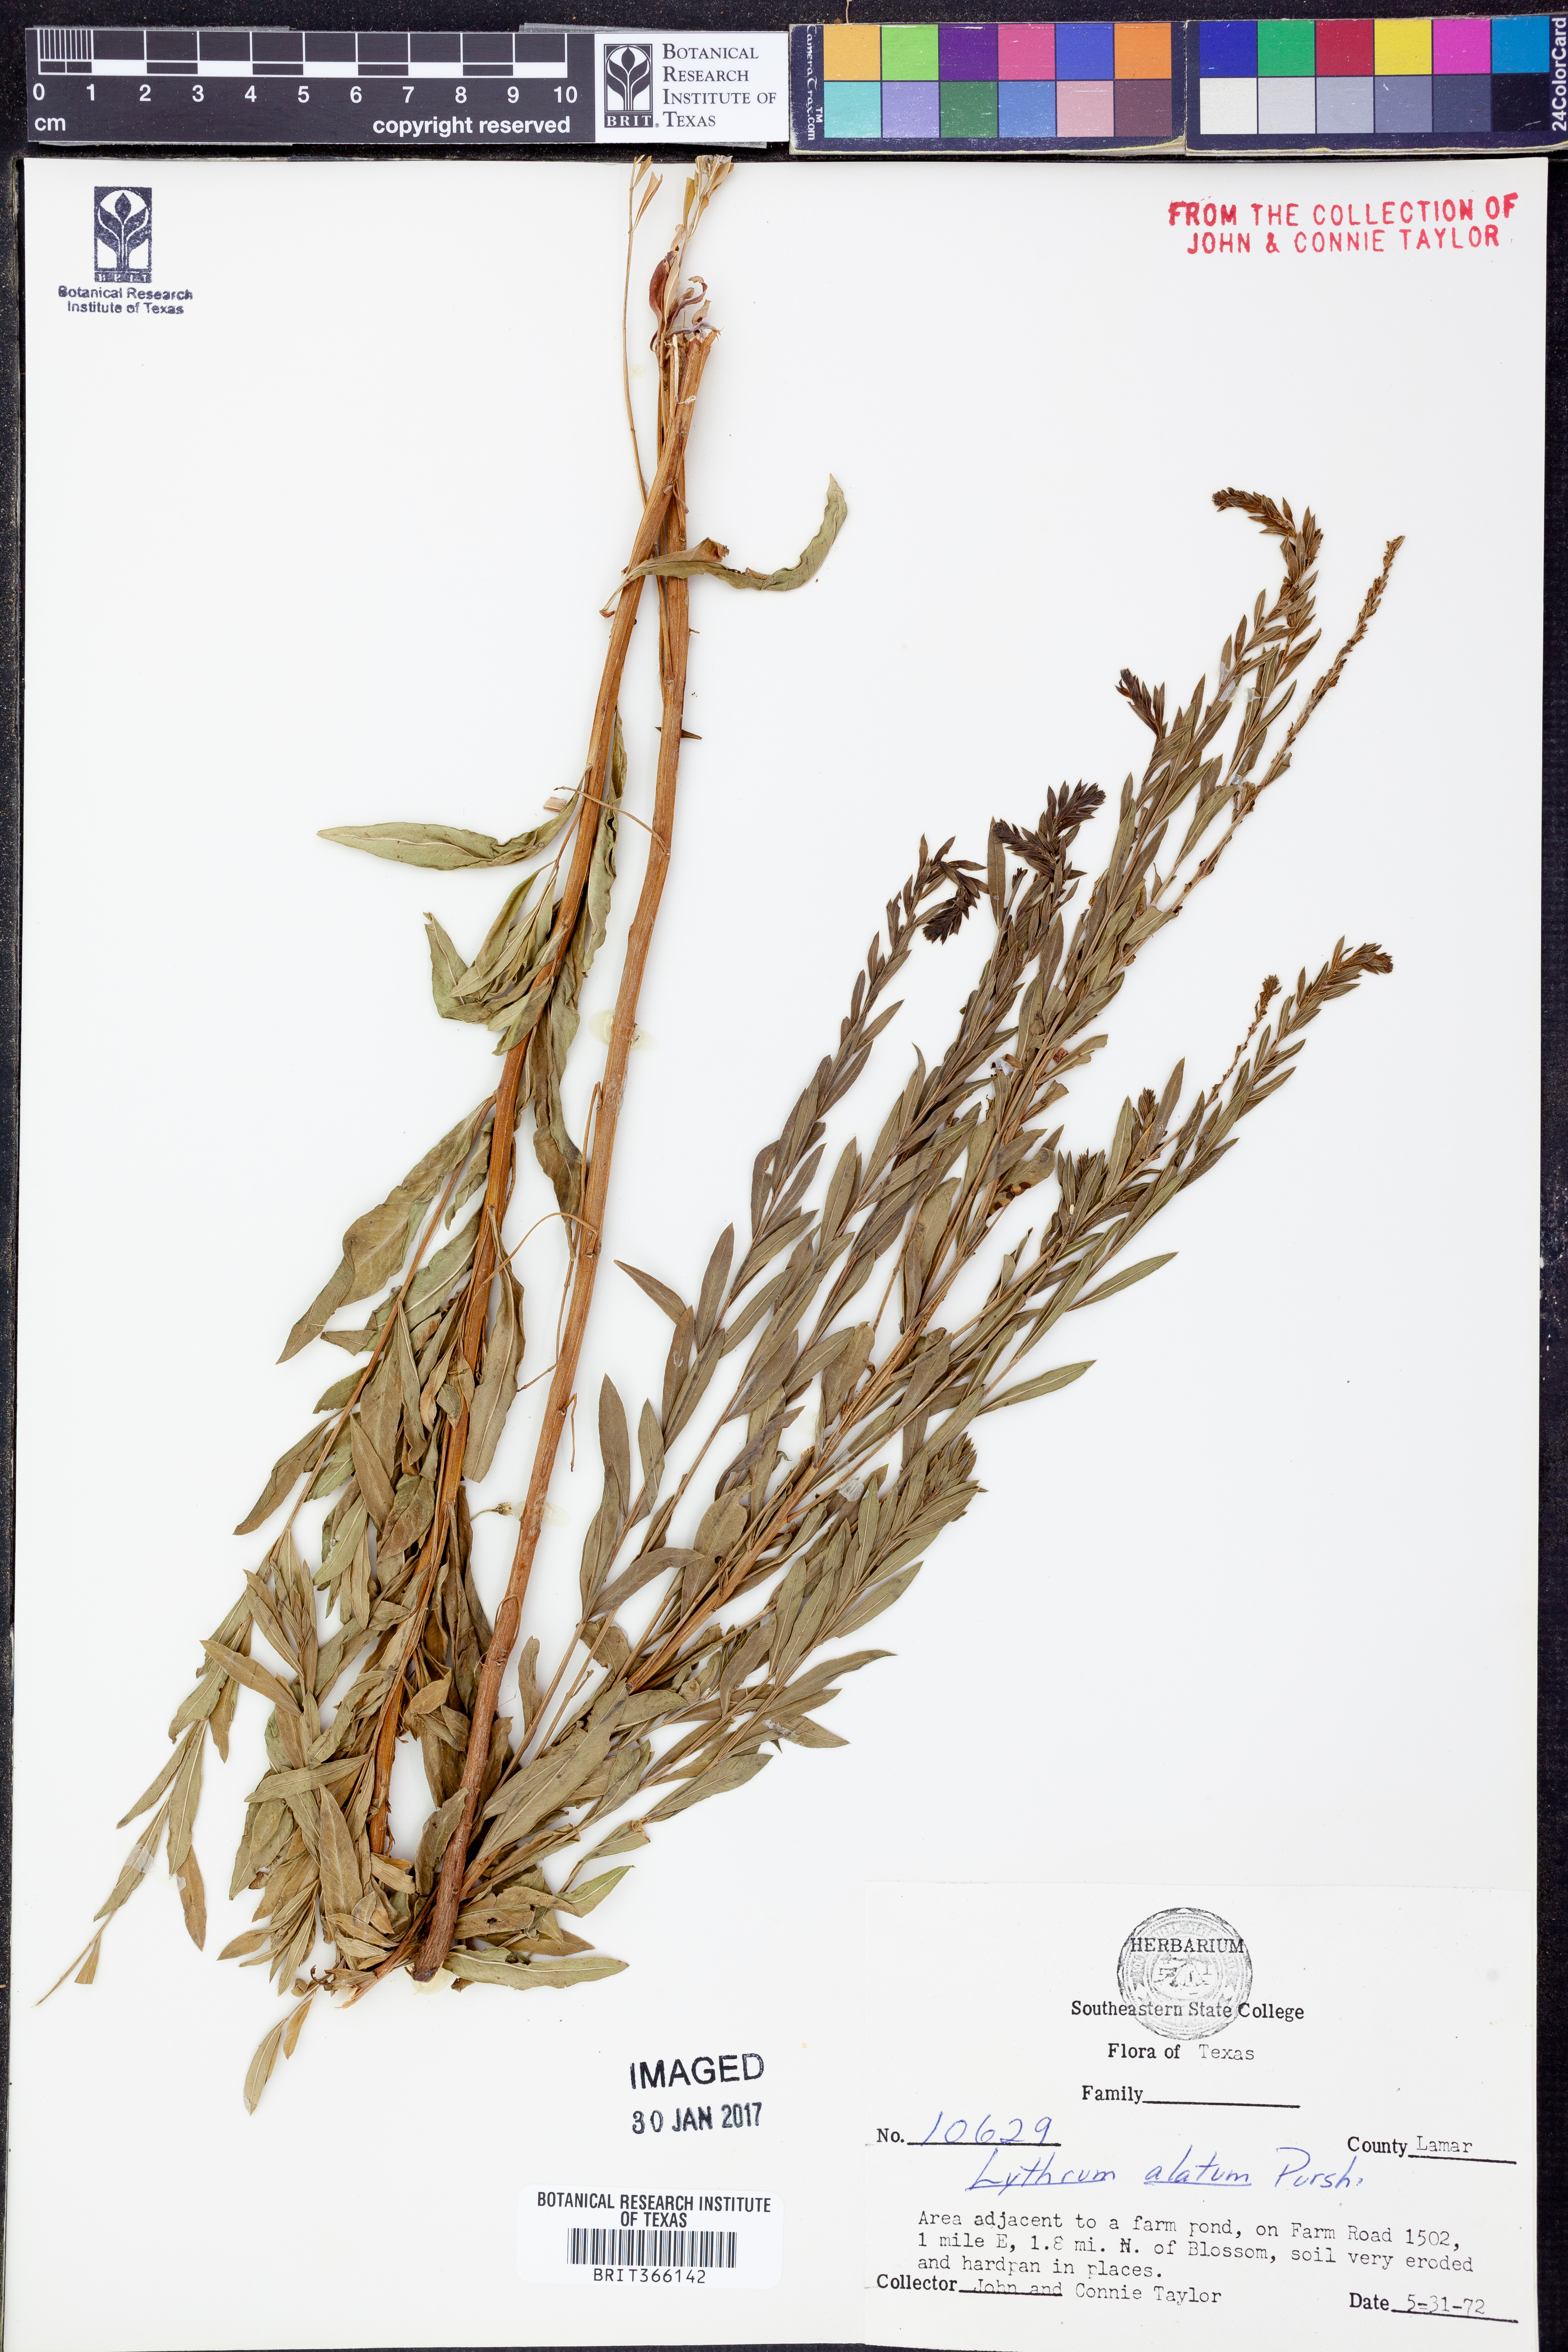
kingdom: Plantae
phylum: Tracheophyta
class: Magnoliopsida
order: Myrtales
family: Lythraceae
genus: Lythrum
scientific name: Lythrum alatum
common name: Winged loosestrife
